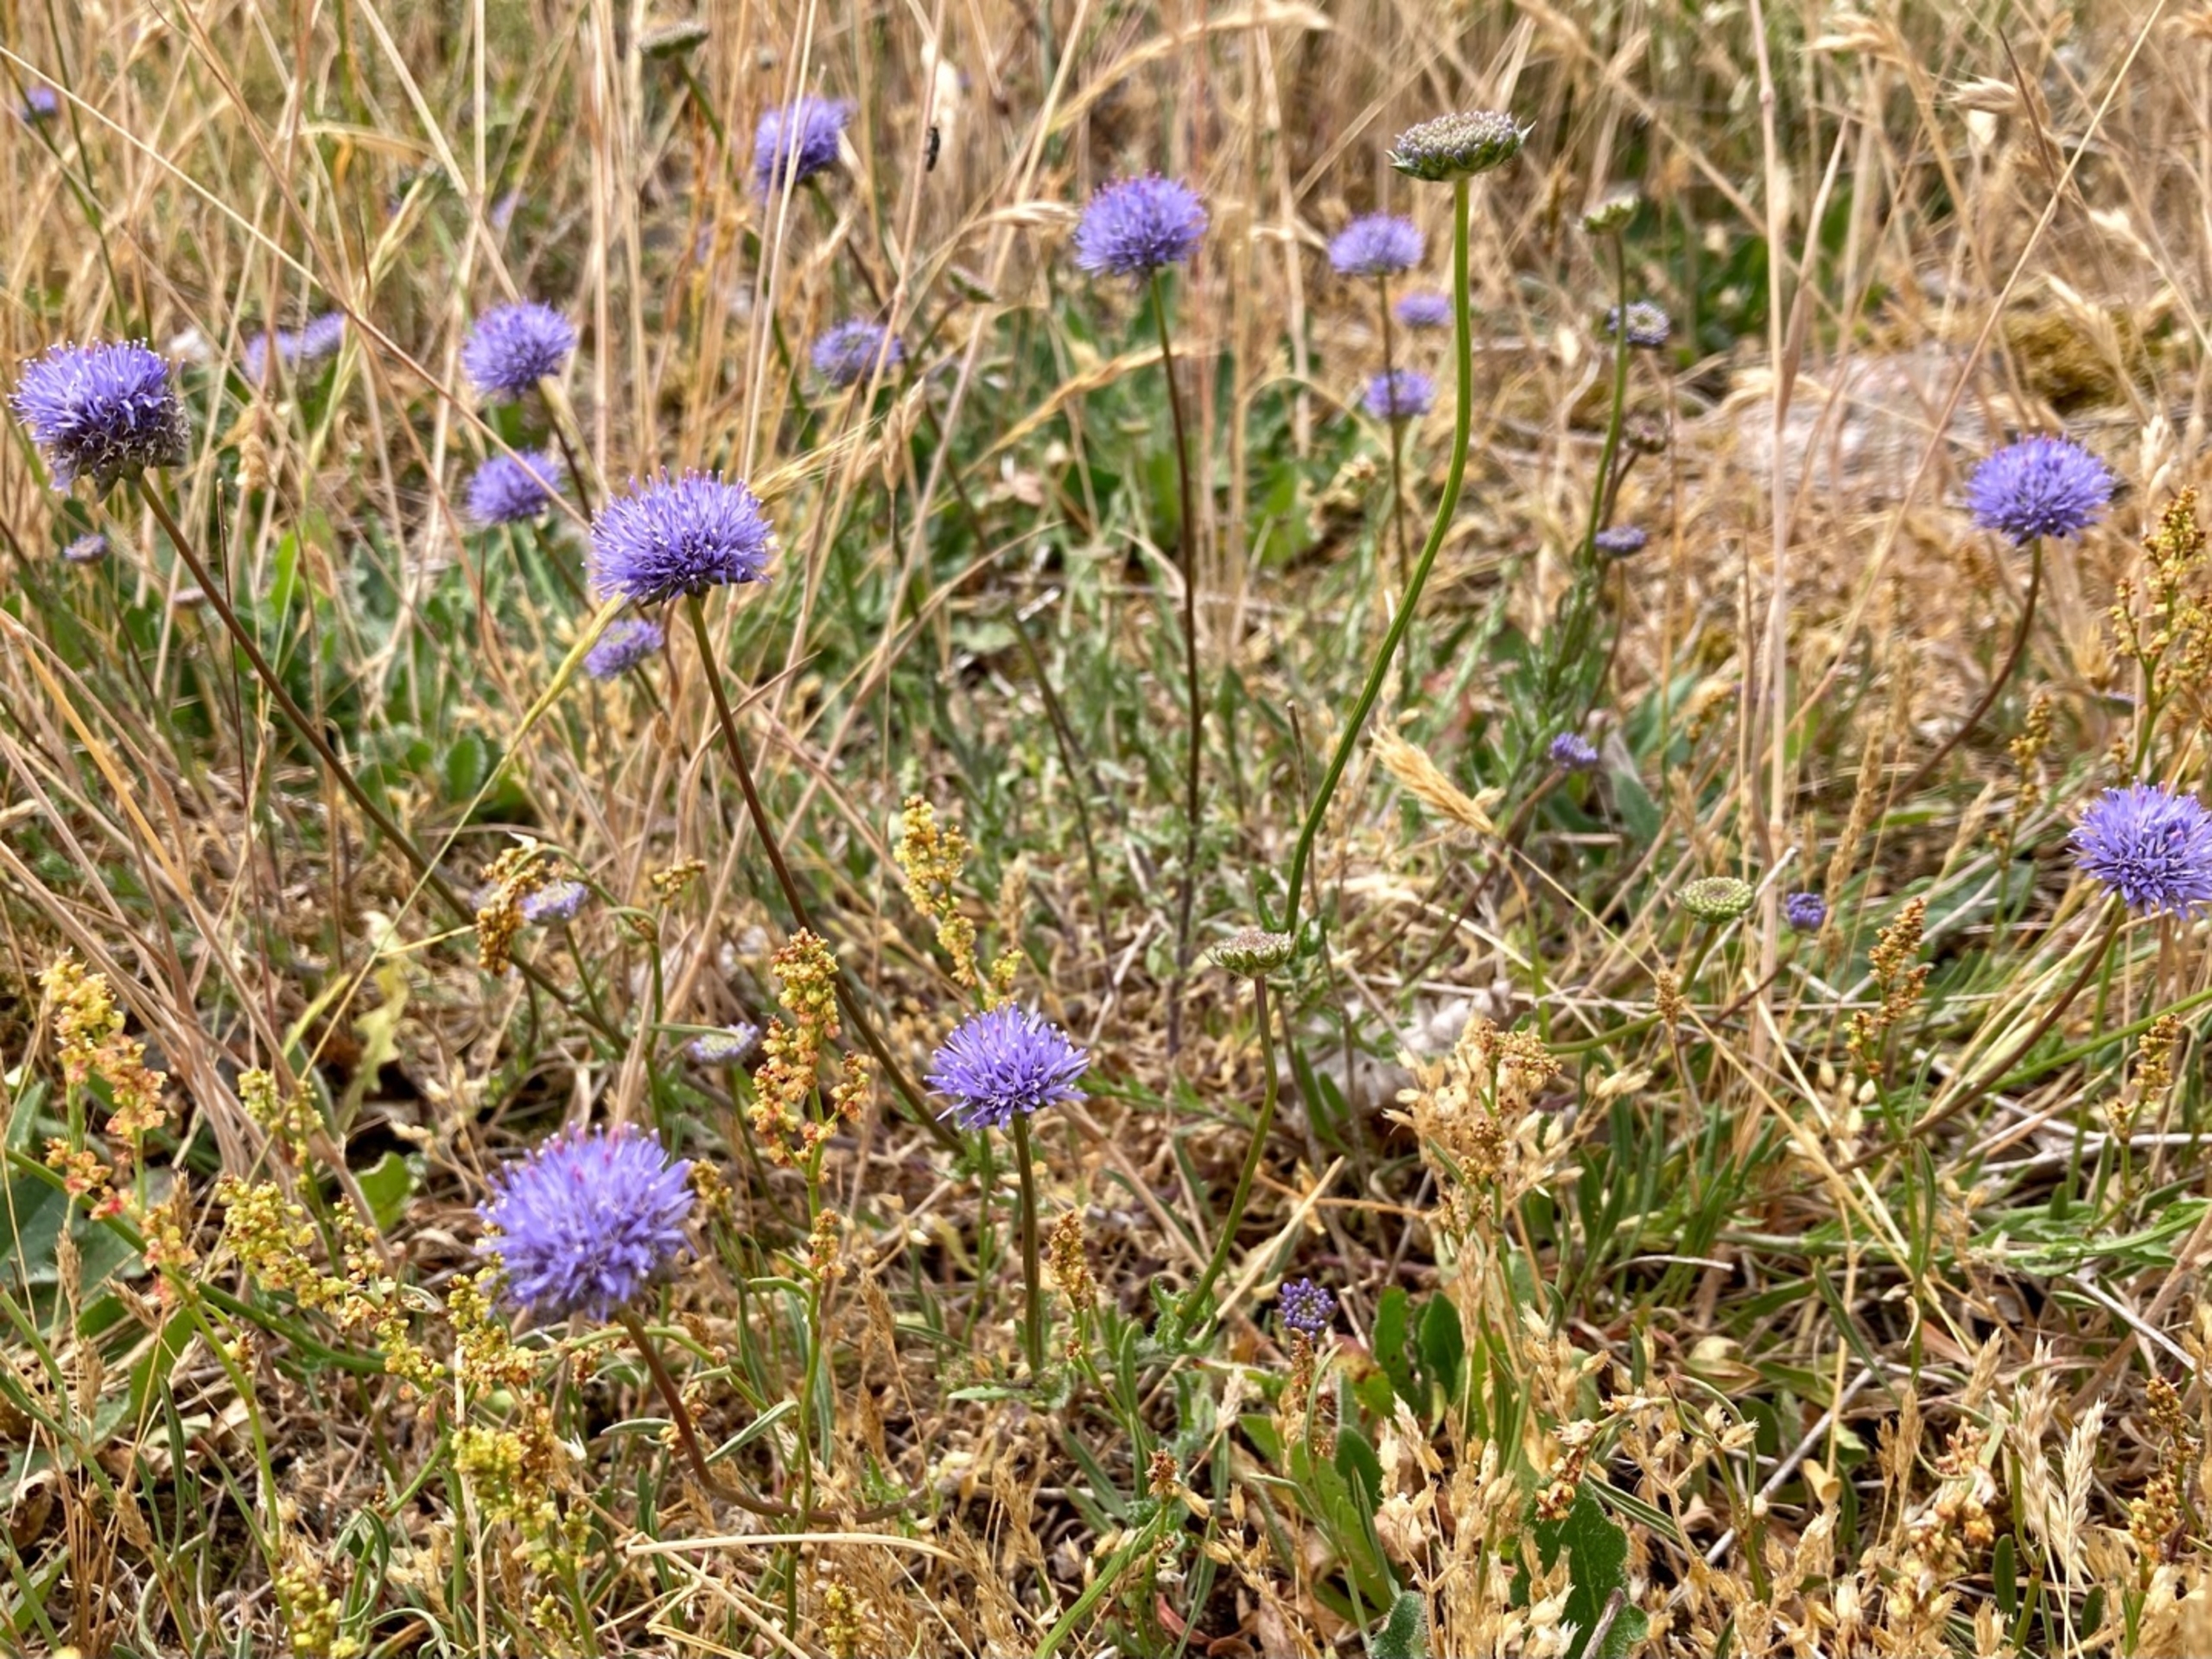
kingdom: Plantae
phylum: Tracheophyta
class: Magnoliopsida
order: Asterales
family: Campanulaceae
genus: Jasione
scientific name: Jasione montana
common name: Blåmunke
